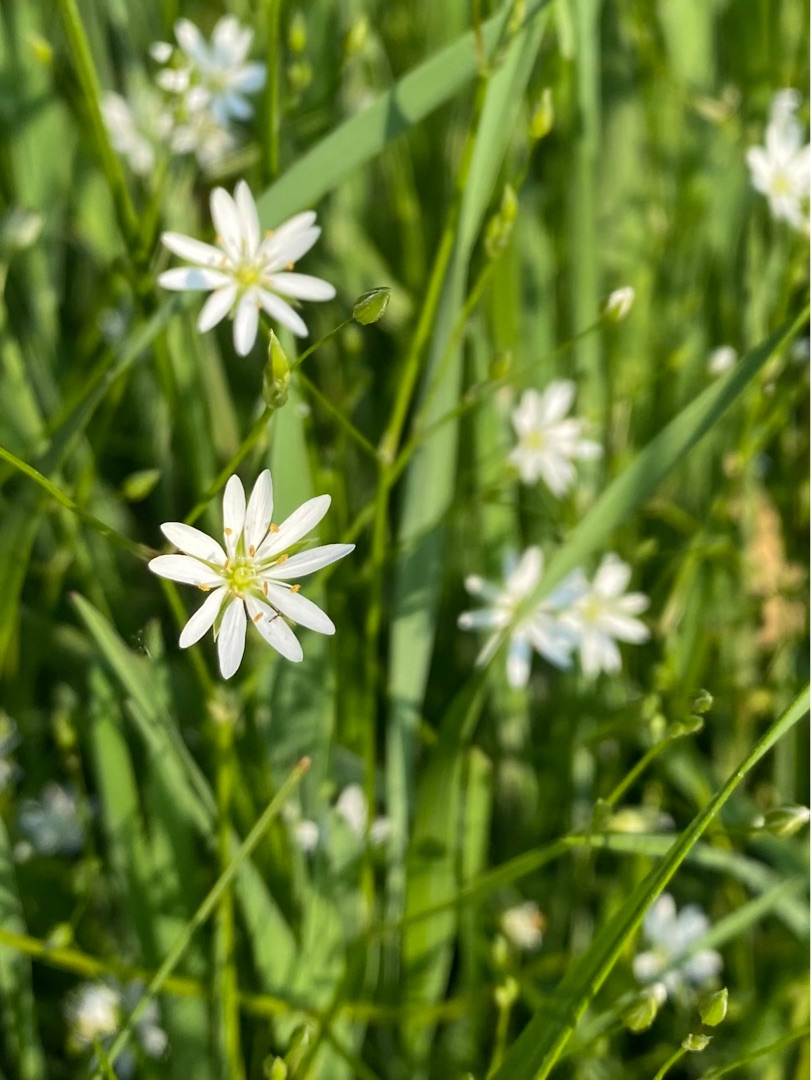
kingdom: Plantae
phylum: Tracheophyta
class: Magnoliopsida
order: Caryophyllales
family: Caryophyllaceae
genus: Stellaria
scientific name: Stellaria graminea
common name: Græsbladet fladstjerne
